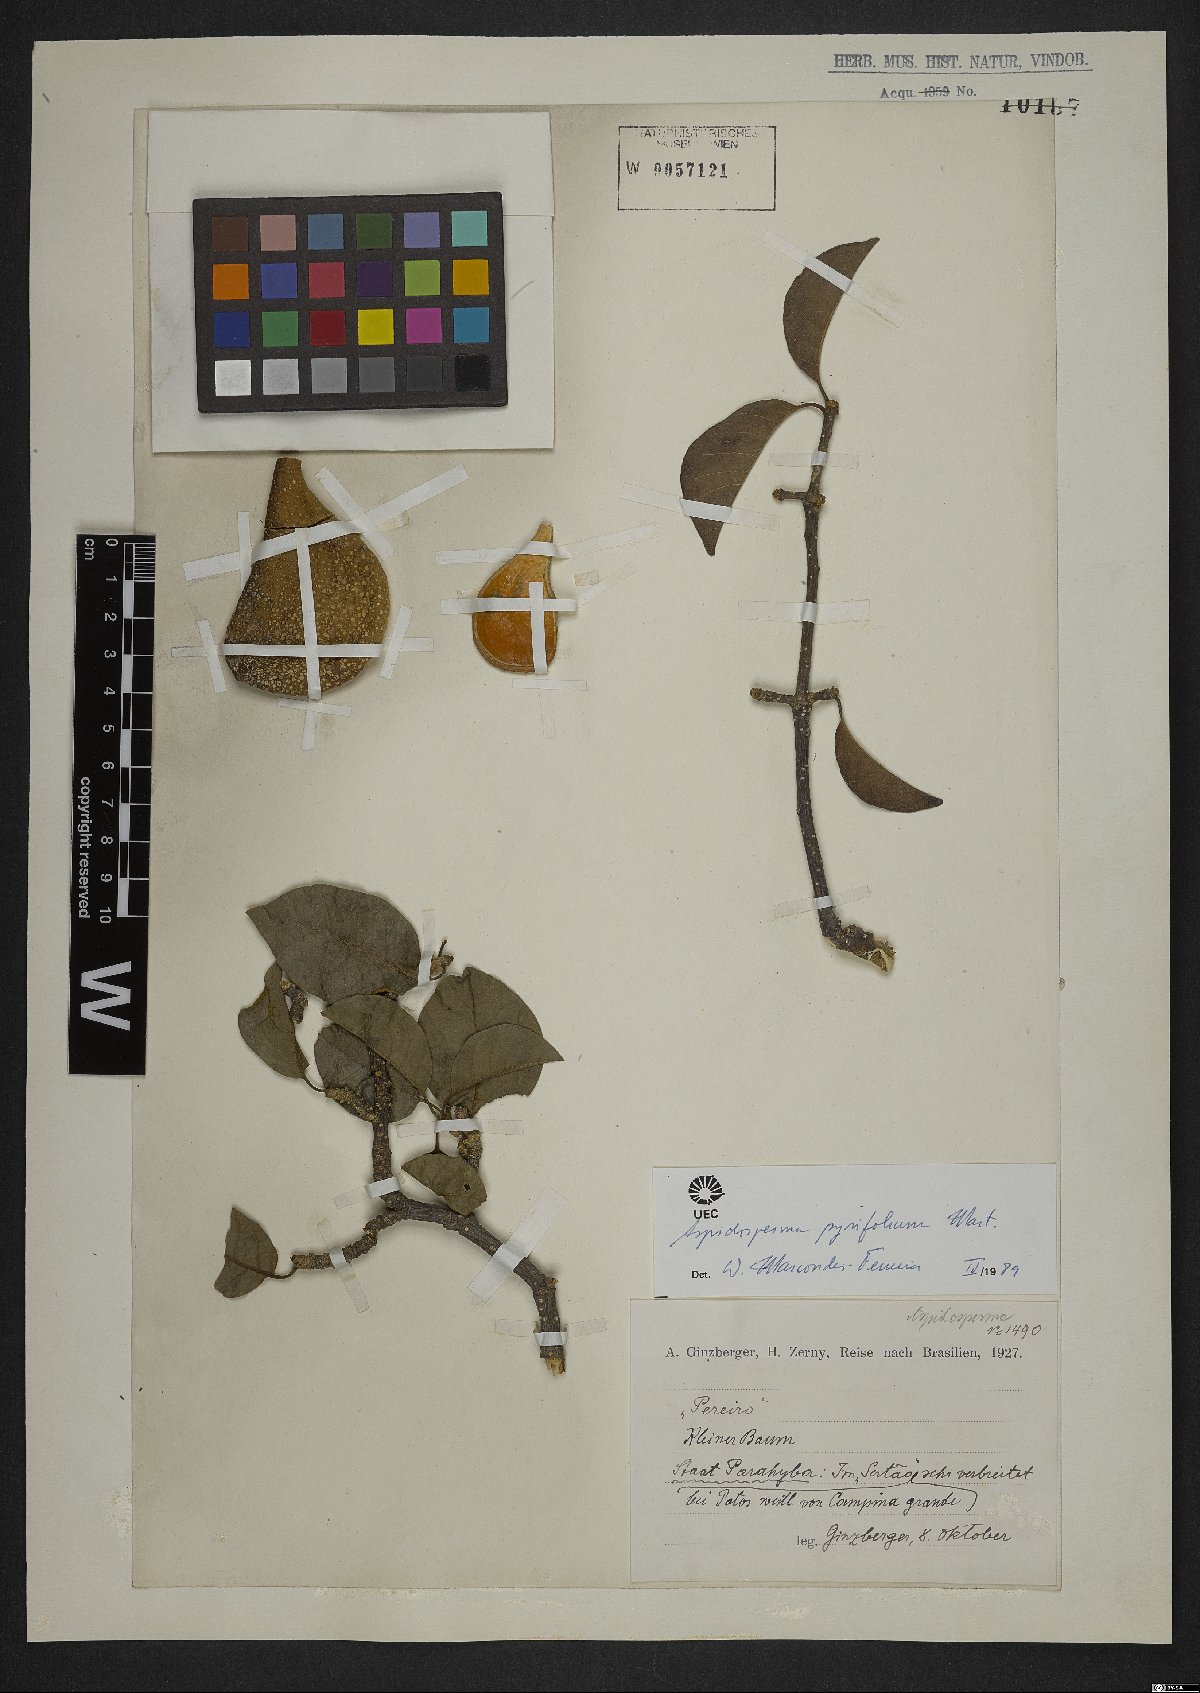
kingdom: Plantae
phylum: Tracheophyta
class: Magnoliopsida
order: Gentianales
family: Apocynaceae
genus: Aspidosperma
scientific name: Aspidosperma pyrifolium
